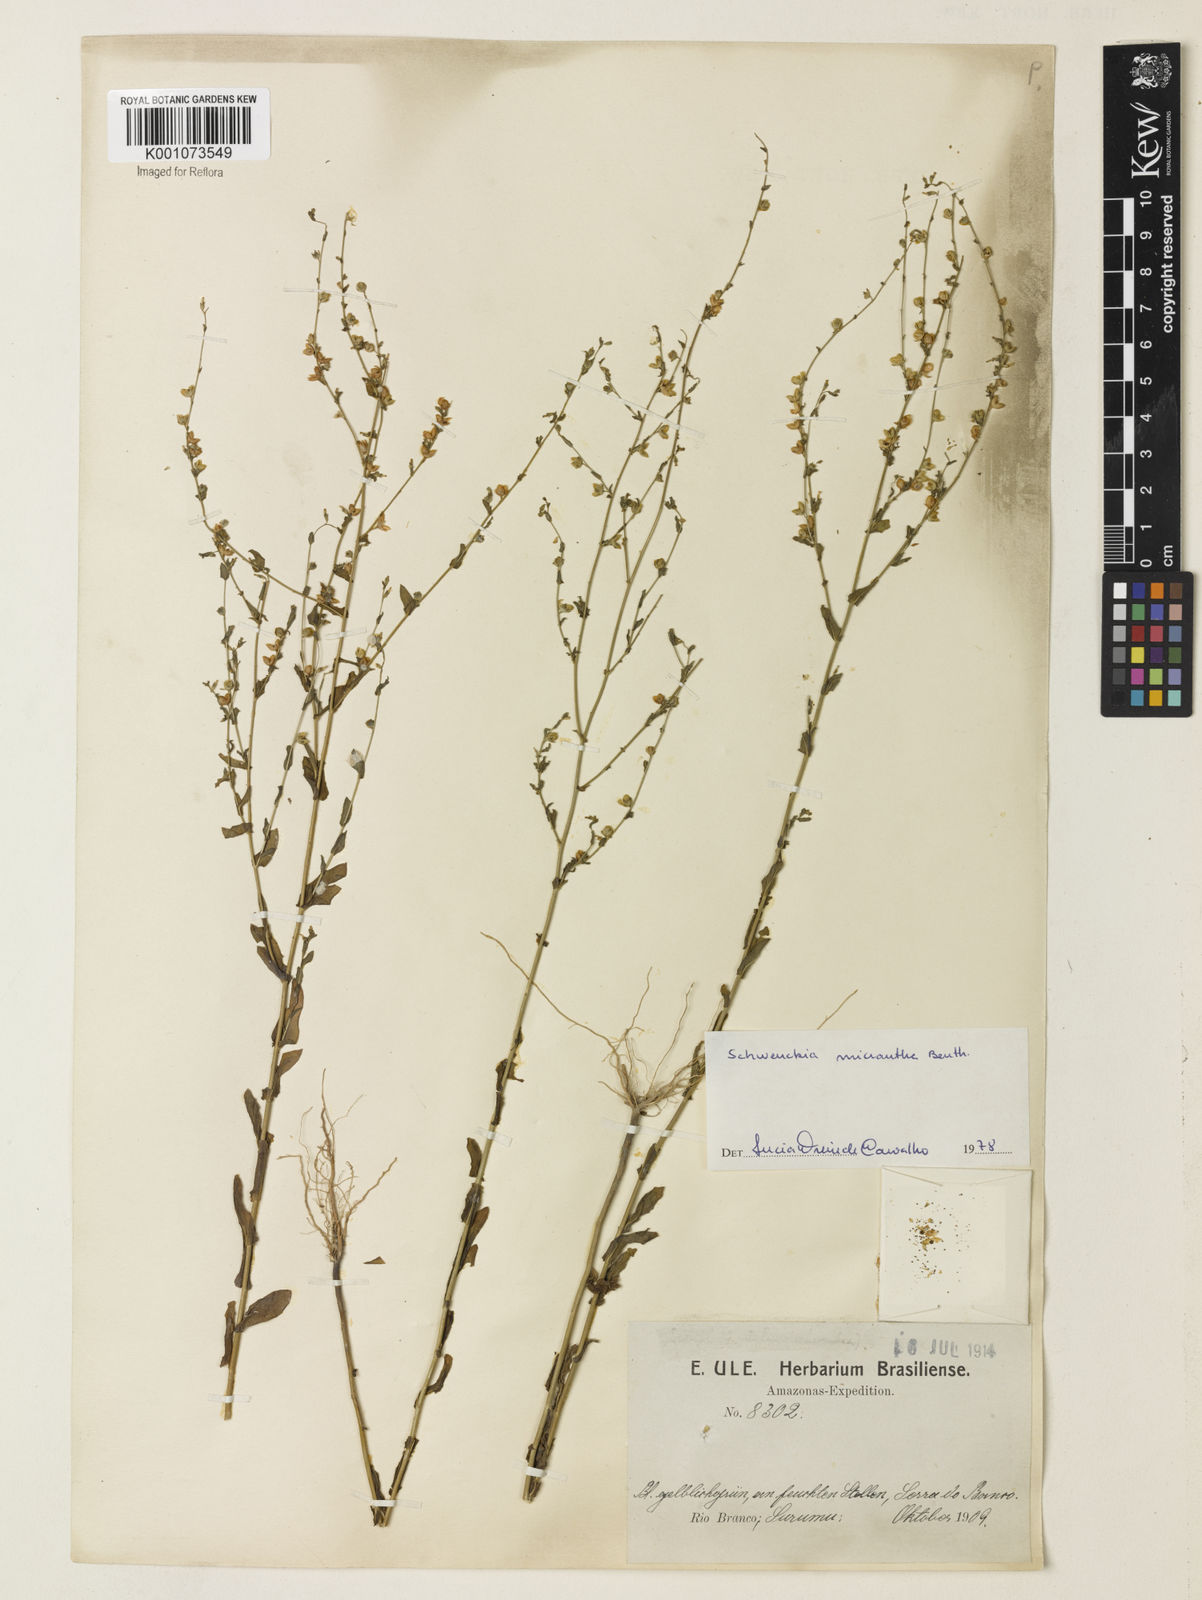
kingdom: Plantae
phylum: Tracheophyta
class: Magnoliopsida
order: Solanales
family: Solanaceae
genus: Schwenckia
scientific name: Schwenckia micrantha
